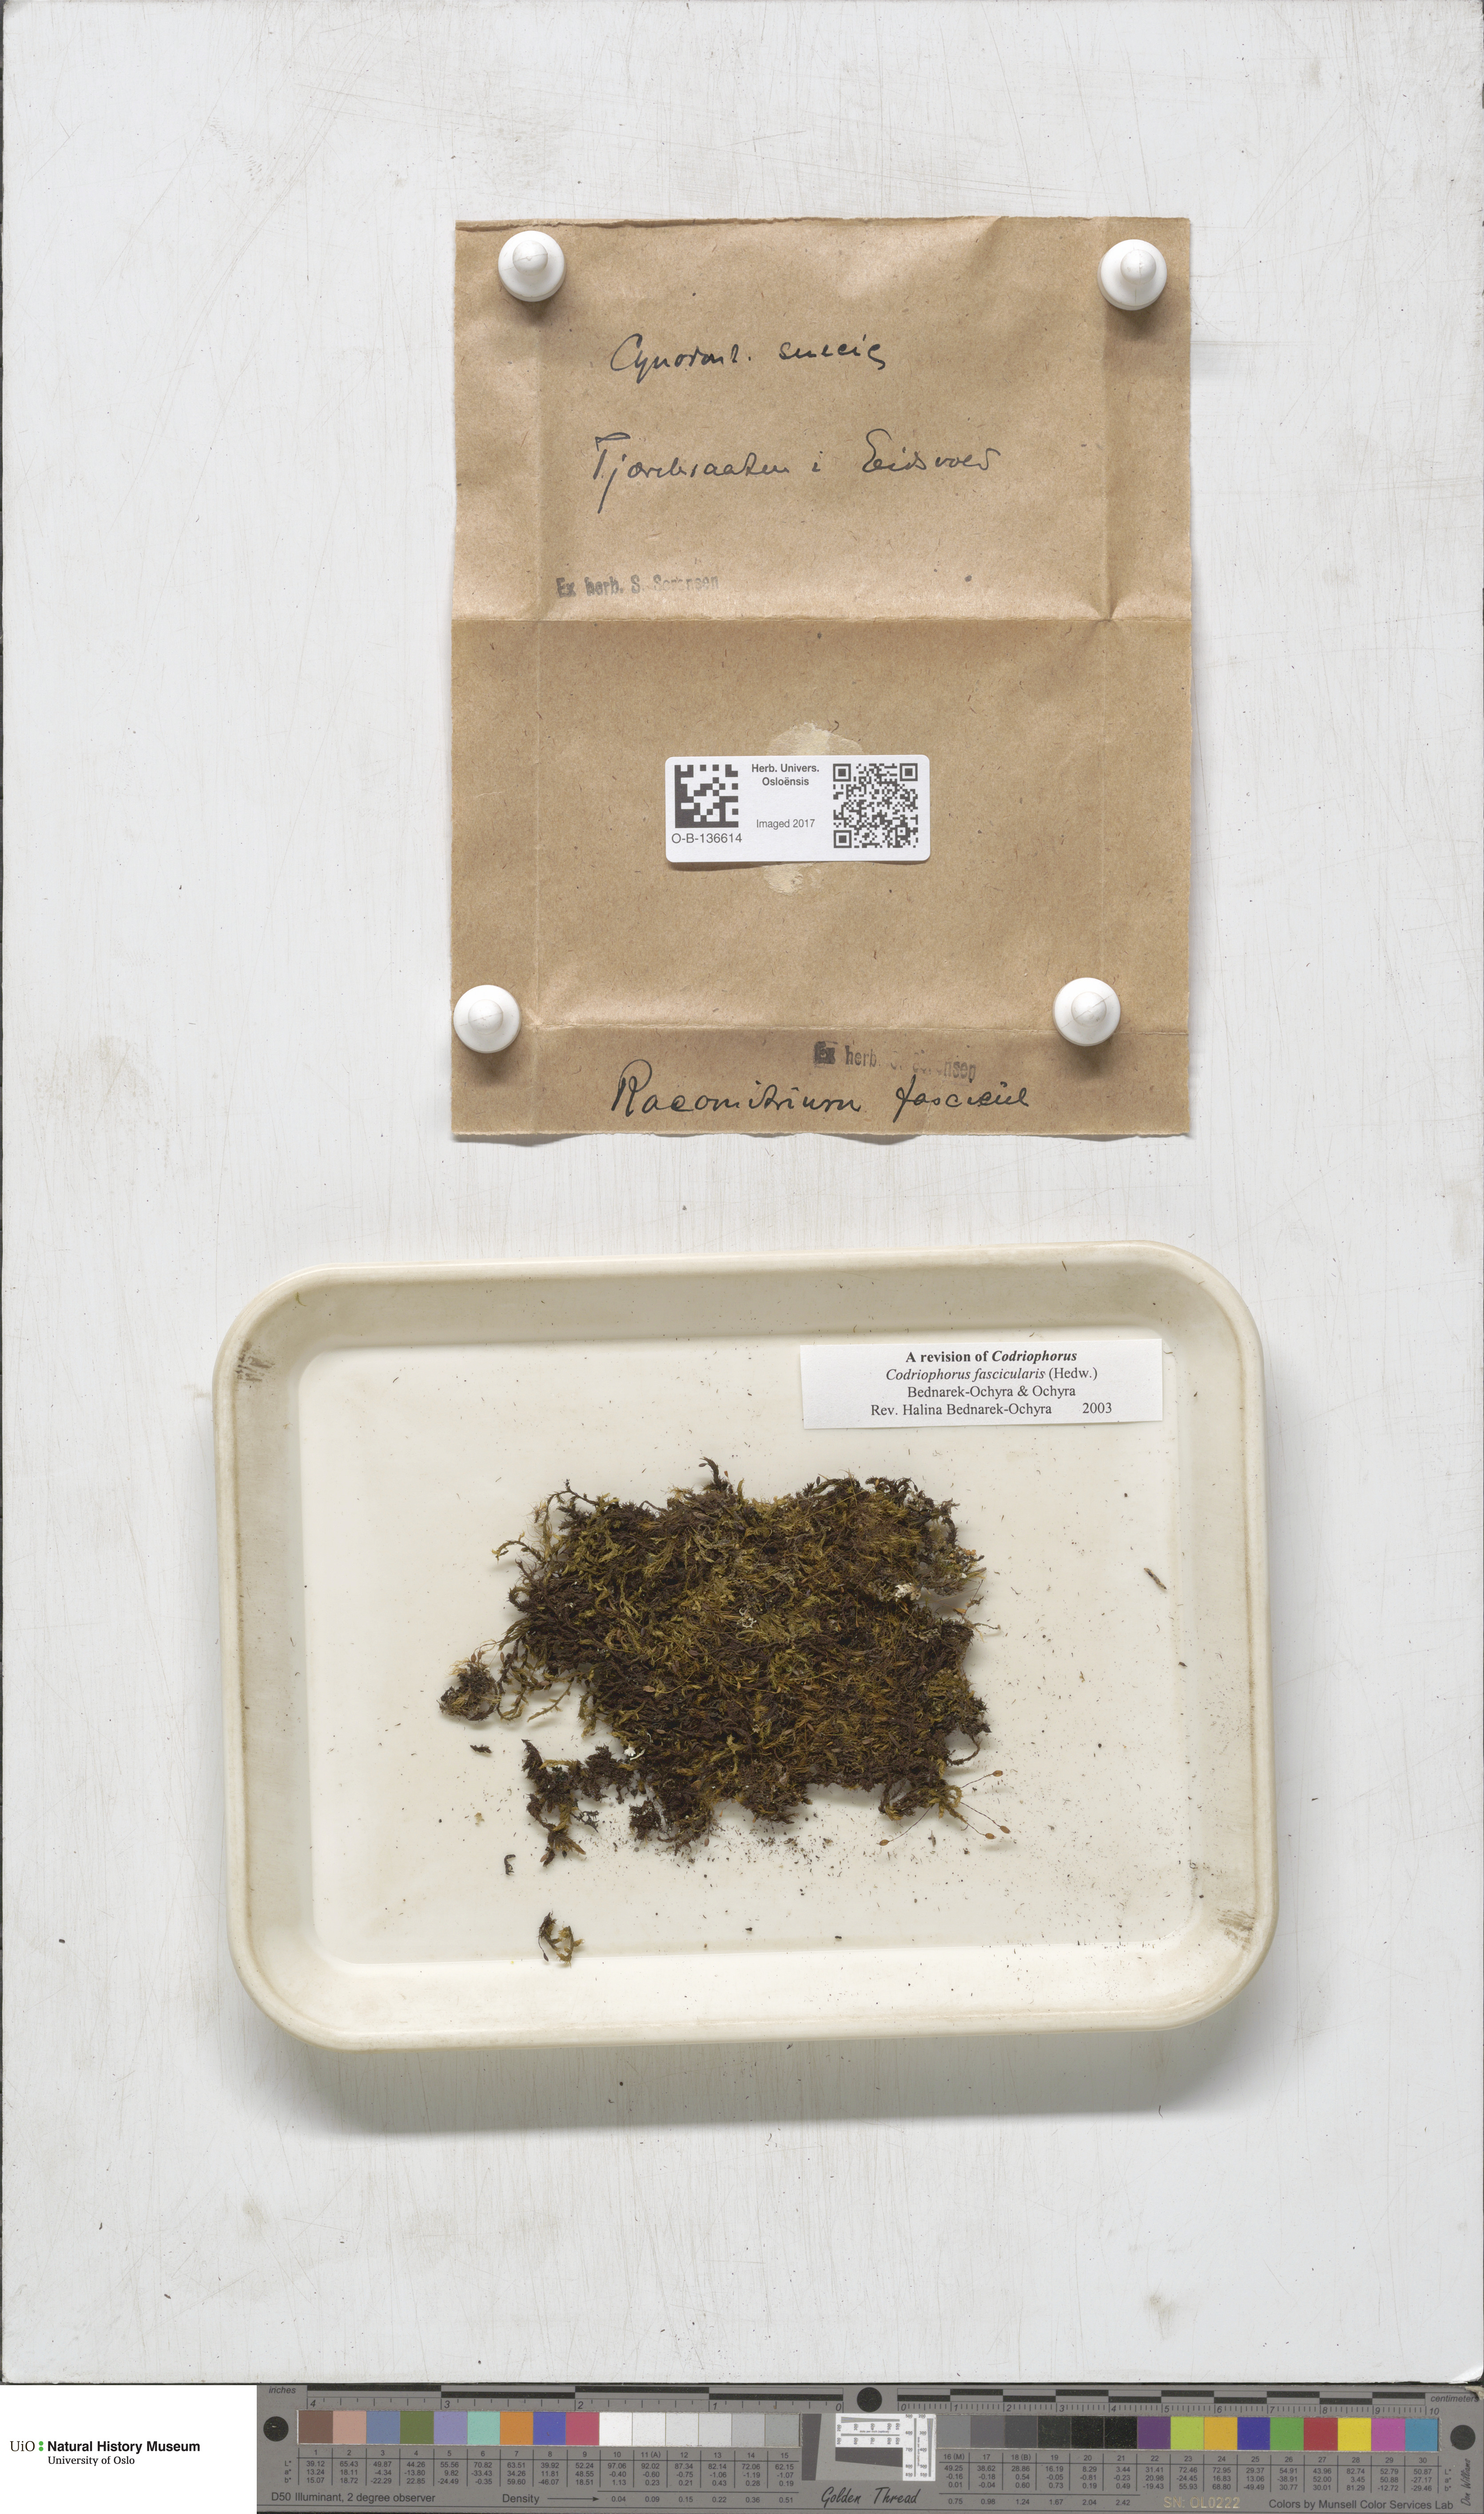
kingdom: Plantae
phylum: Bryophyta
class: Bryopsida
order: Grimmiales
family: Grimmiaceae
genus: Dilutineuron
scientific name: Dilutineuron fasciculare
